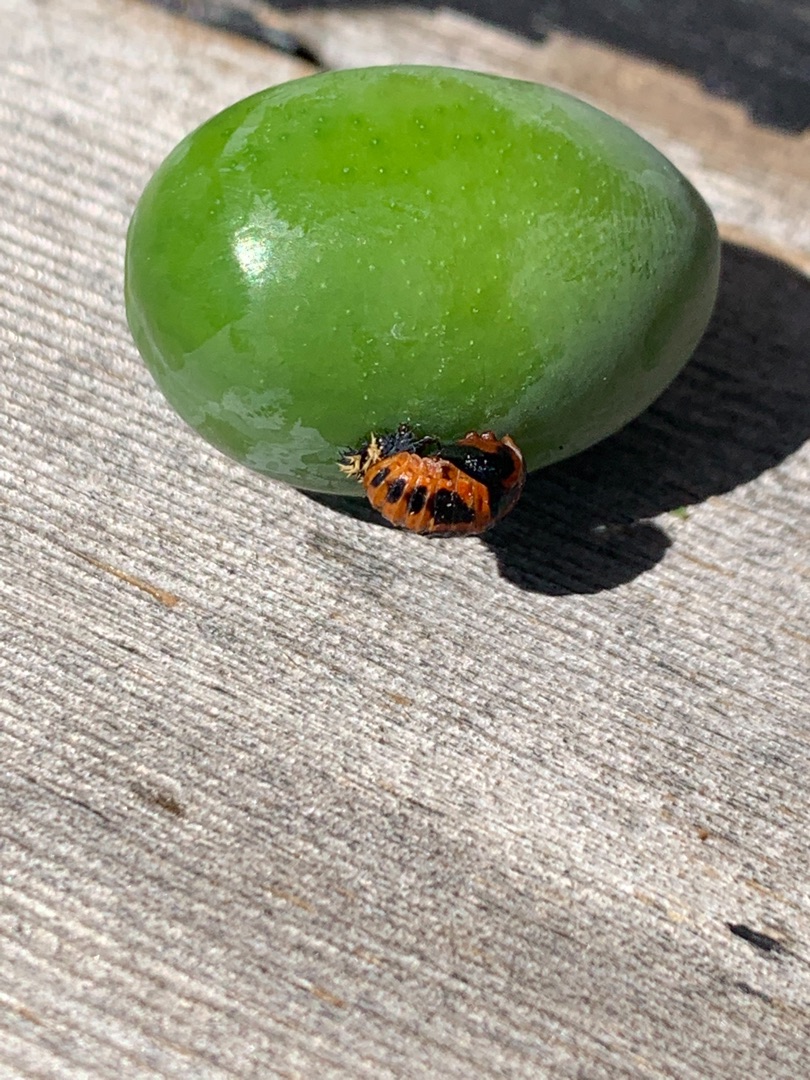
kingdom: Animalia
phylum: Arthropoda
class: Insecta
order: Coleoptera
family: Coccinellidae
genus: Harmonia
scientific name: Harmonia axyridis
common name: Harlekinmariehøne
